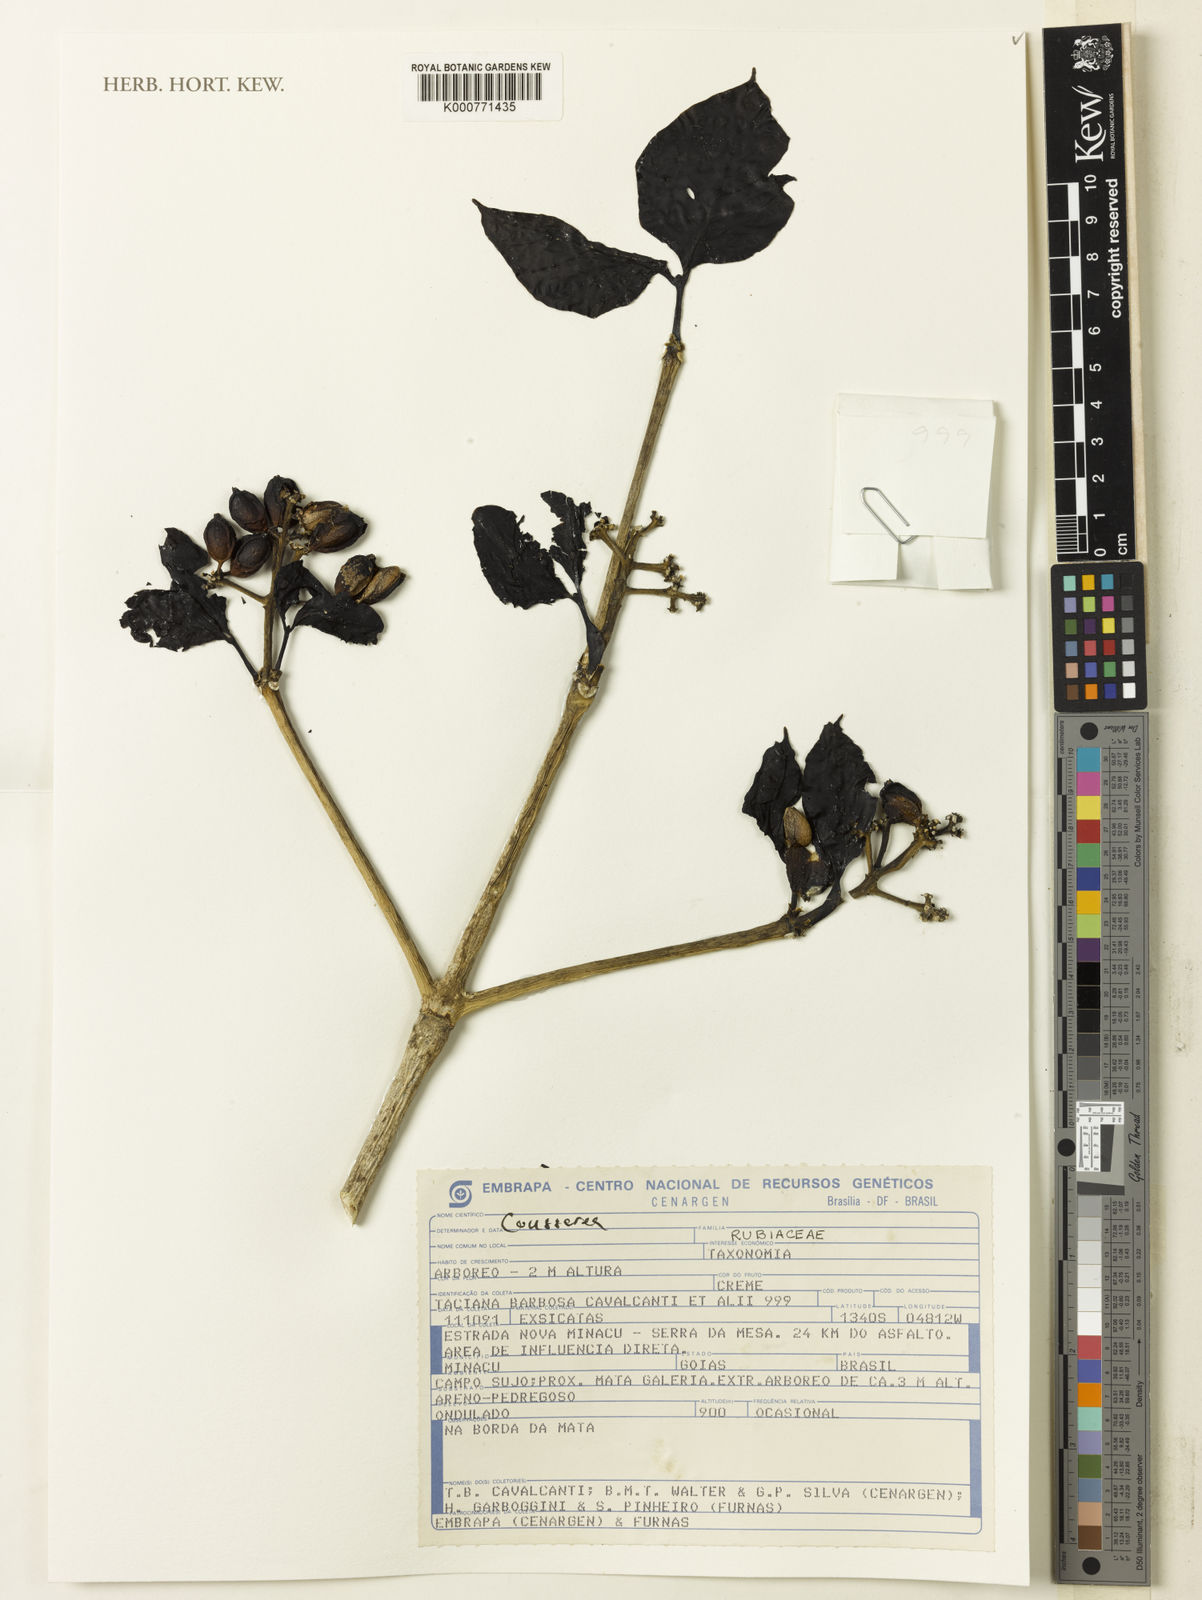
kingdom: Plantae
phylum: Tracheophyta
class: Magnoliopsida
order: Gentianales
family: Rubiaceae
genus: Coussarea
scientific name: Coussarea
